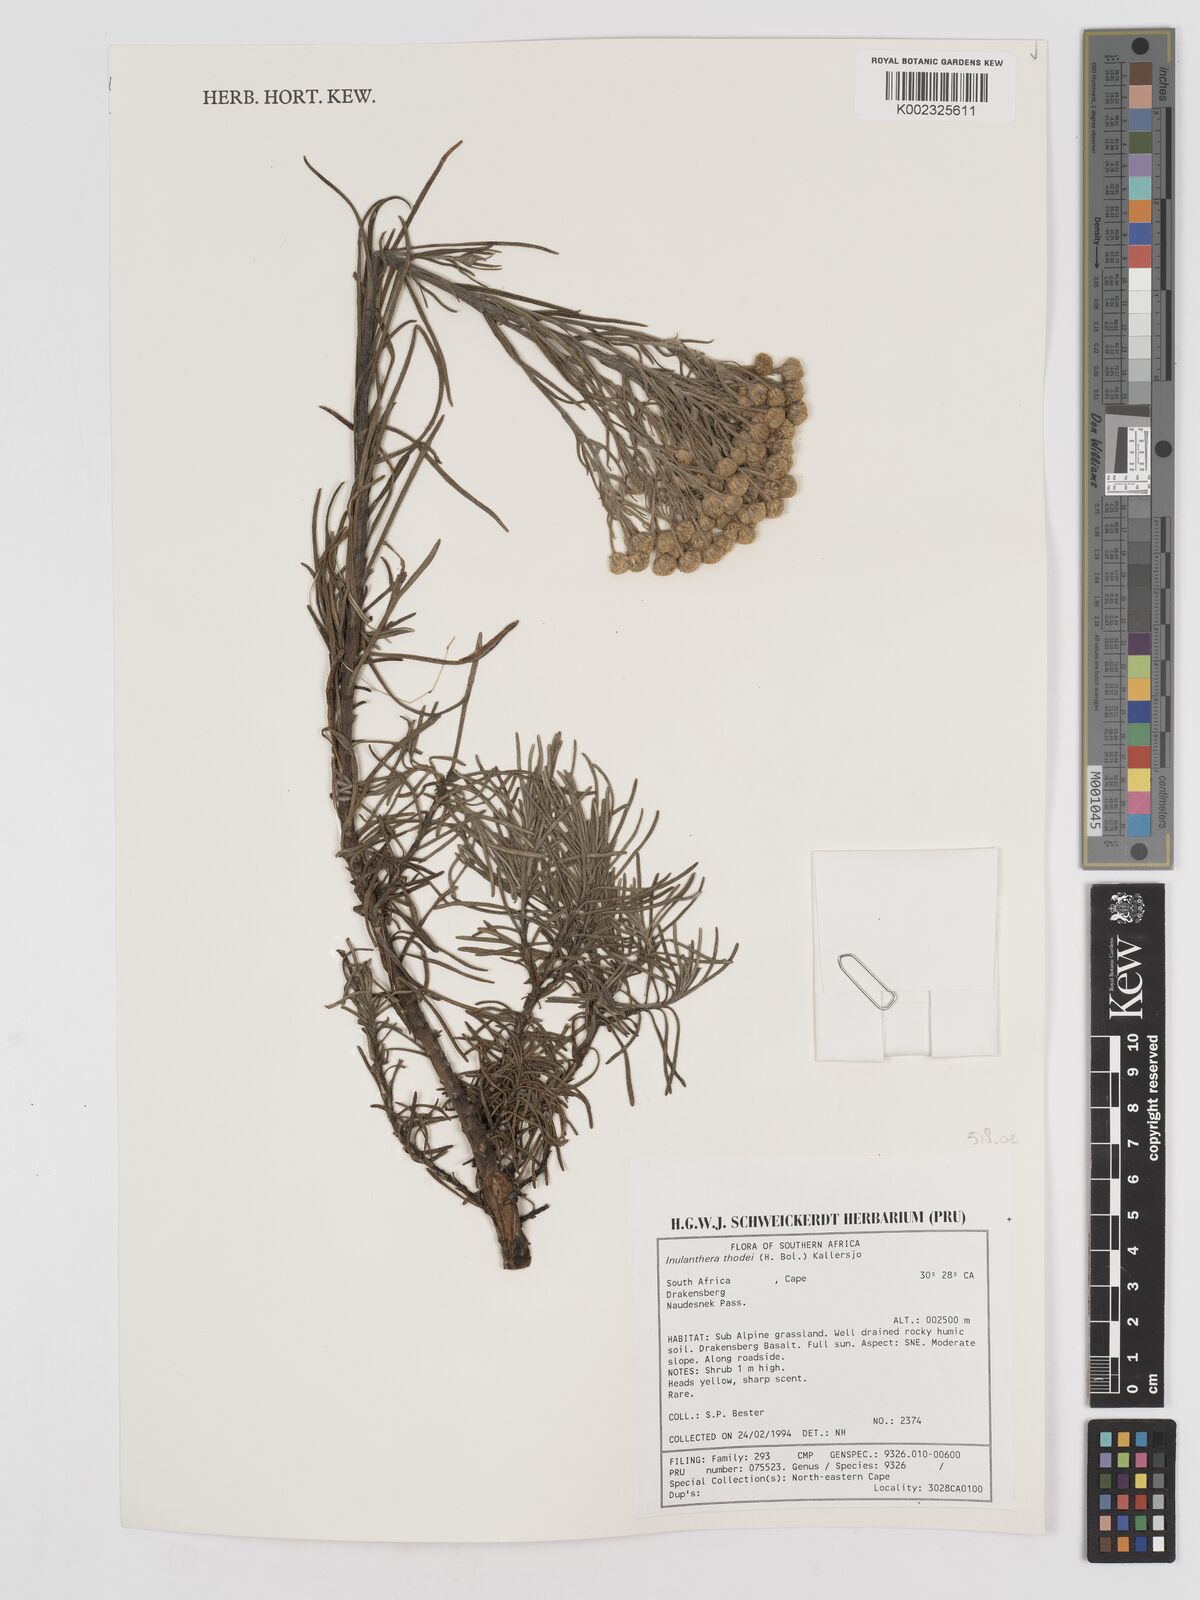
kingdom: Plantae
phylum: Tracheophyta
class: Magnoliopsida
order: Asterales
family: Asteraceae
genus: Inulanthera
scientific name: Inulanthera thodei
